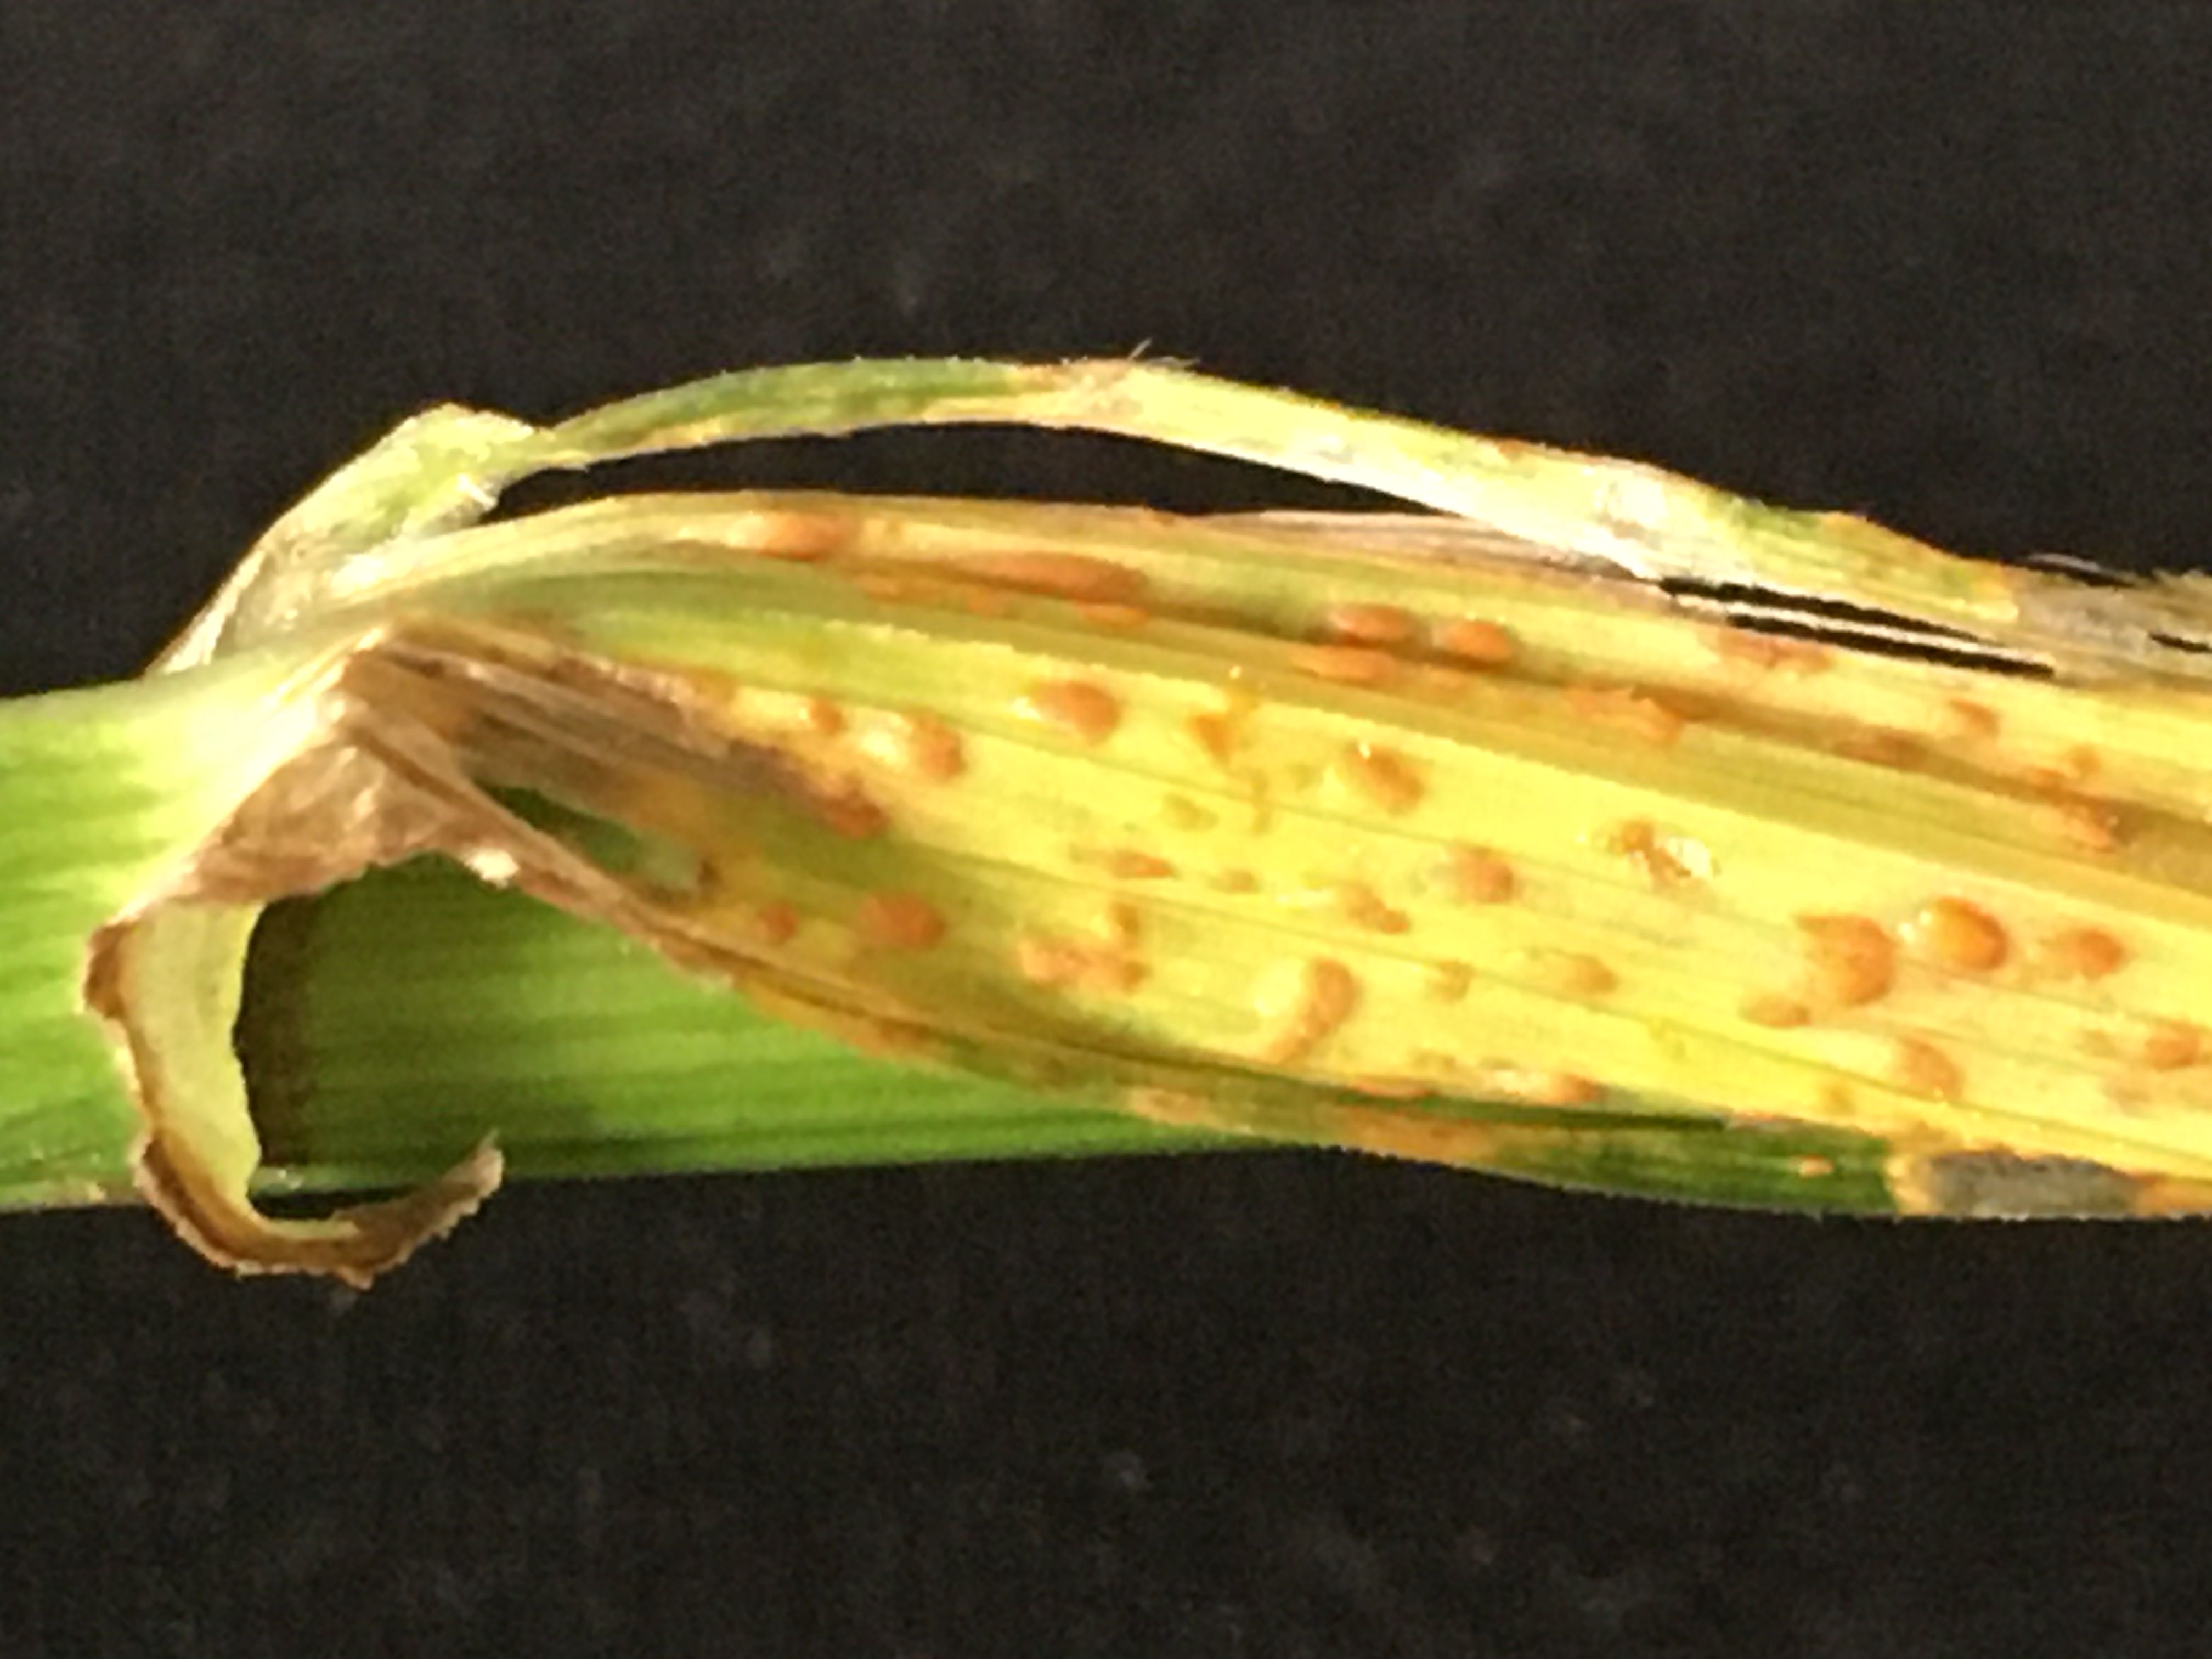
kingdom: Fungi
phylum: Basidiomycota
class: Pucciniomycetes
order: Pucciniales
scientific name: Pucciniales
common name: rustsvampeordenen
